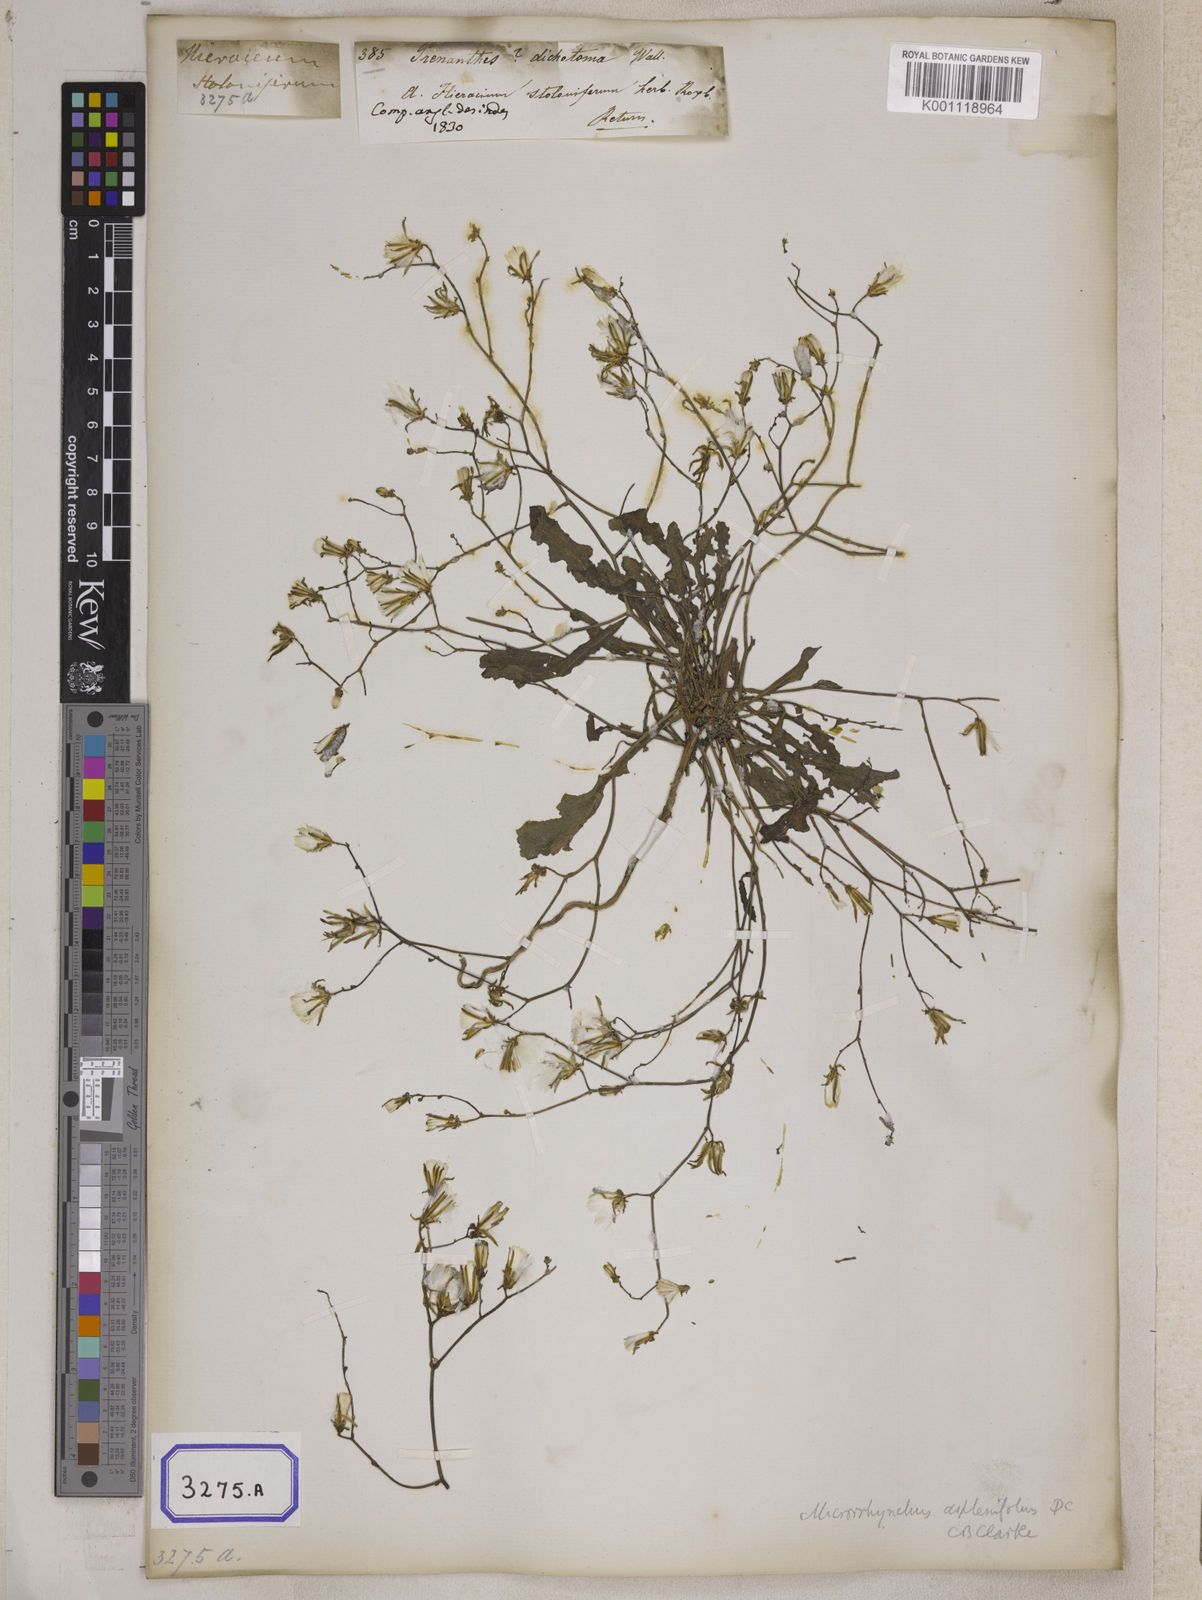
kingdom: Plantae
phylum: Tracheophyta
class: Magnoliopsida
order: Asterales
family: Asteraceae
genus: Launaea
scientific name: Launaea aspleniifolia
